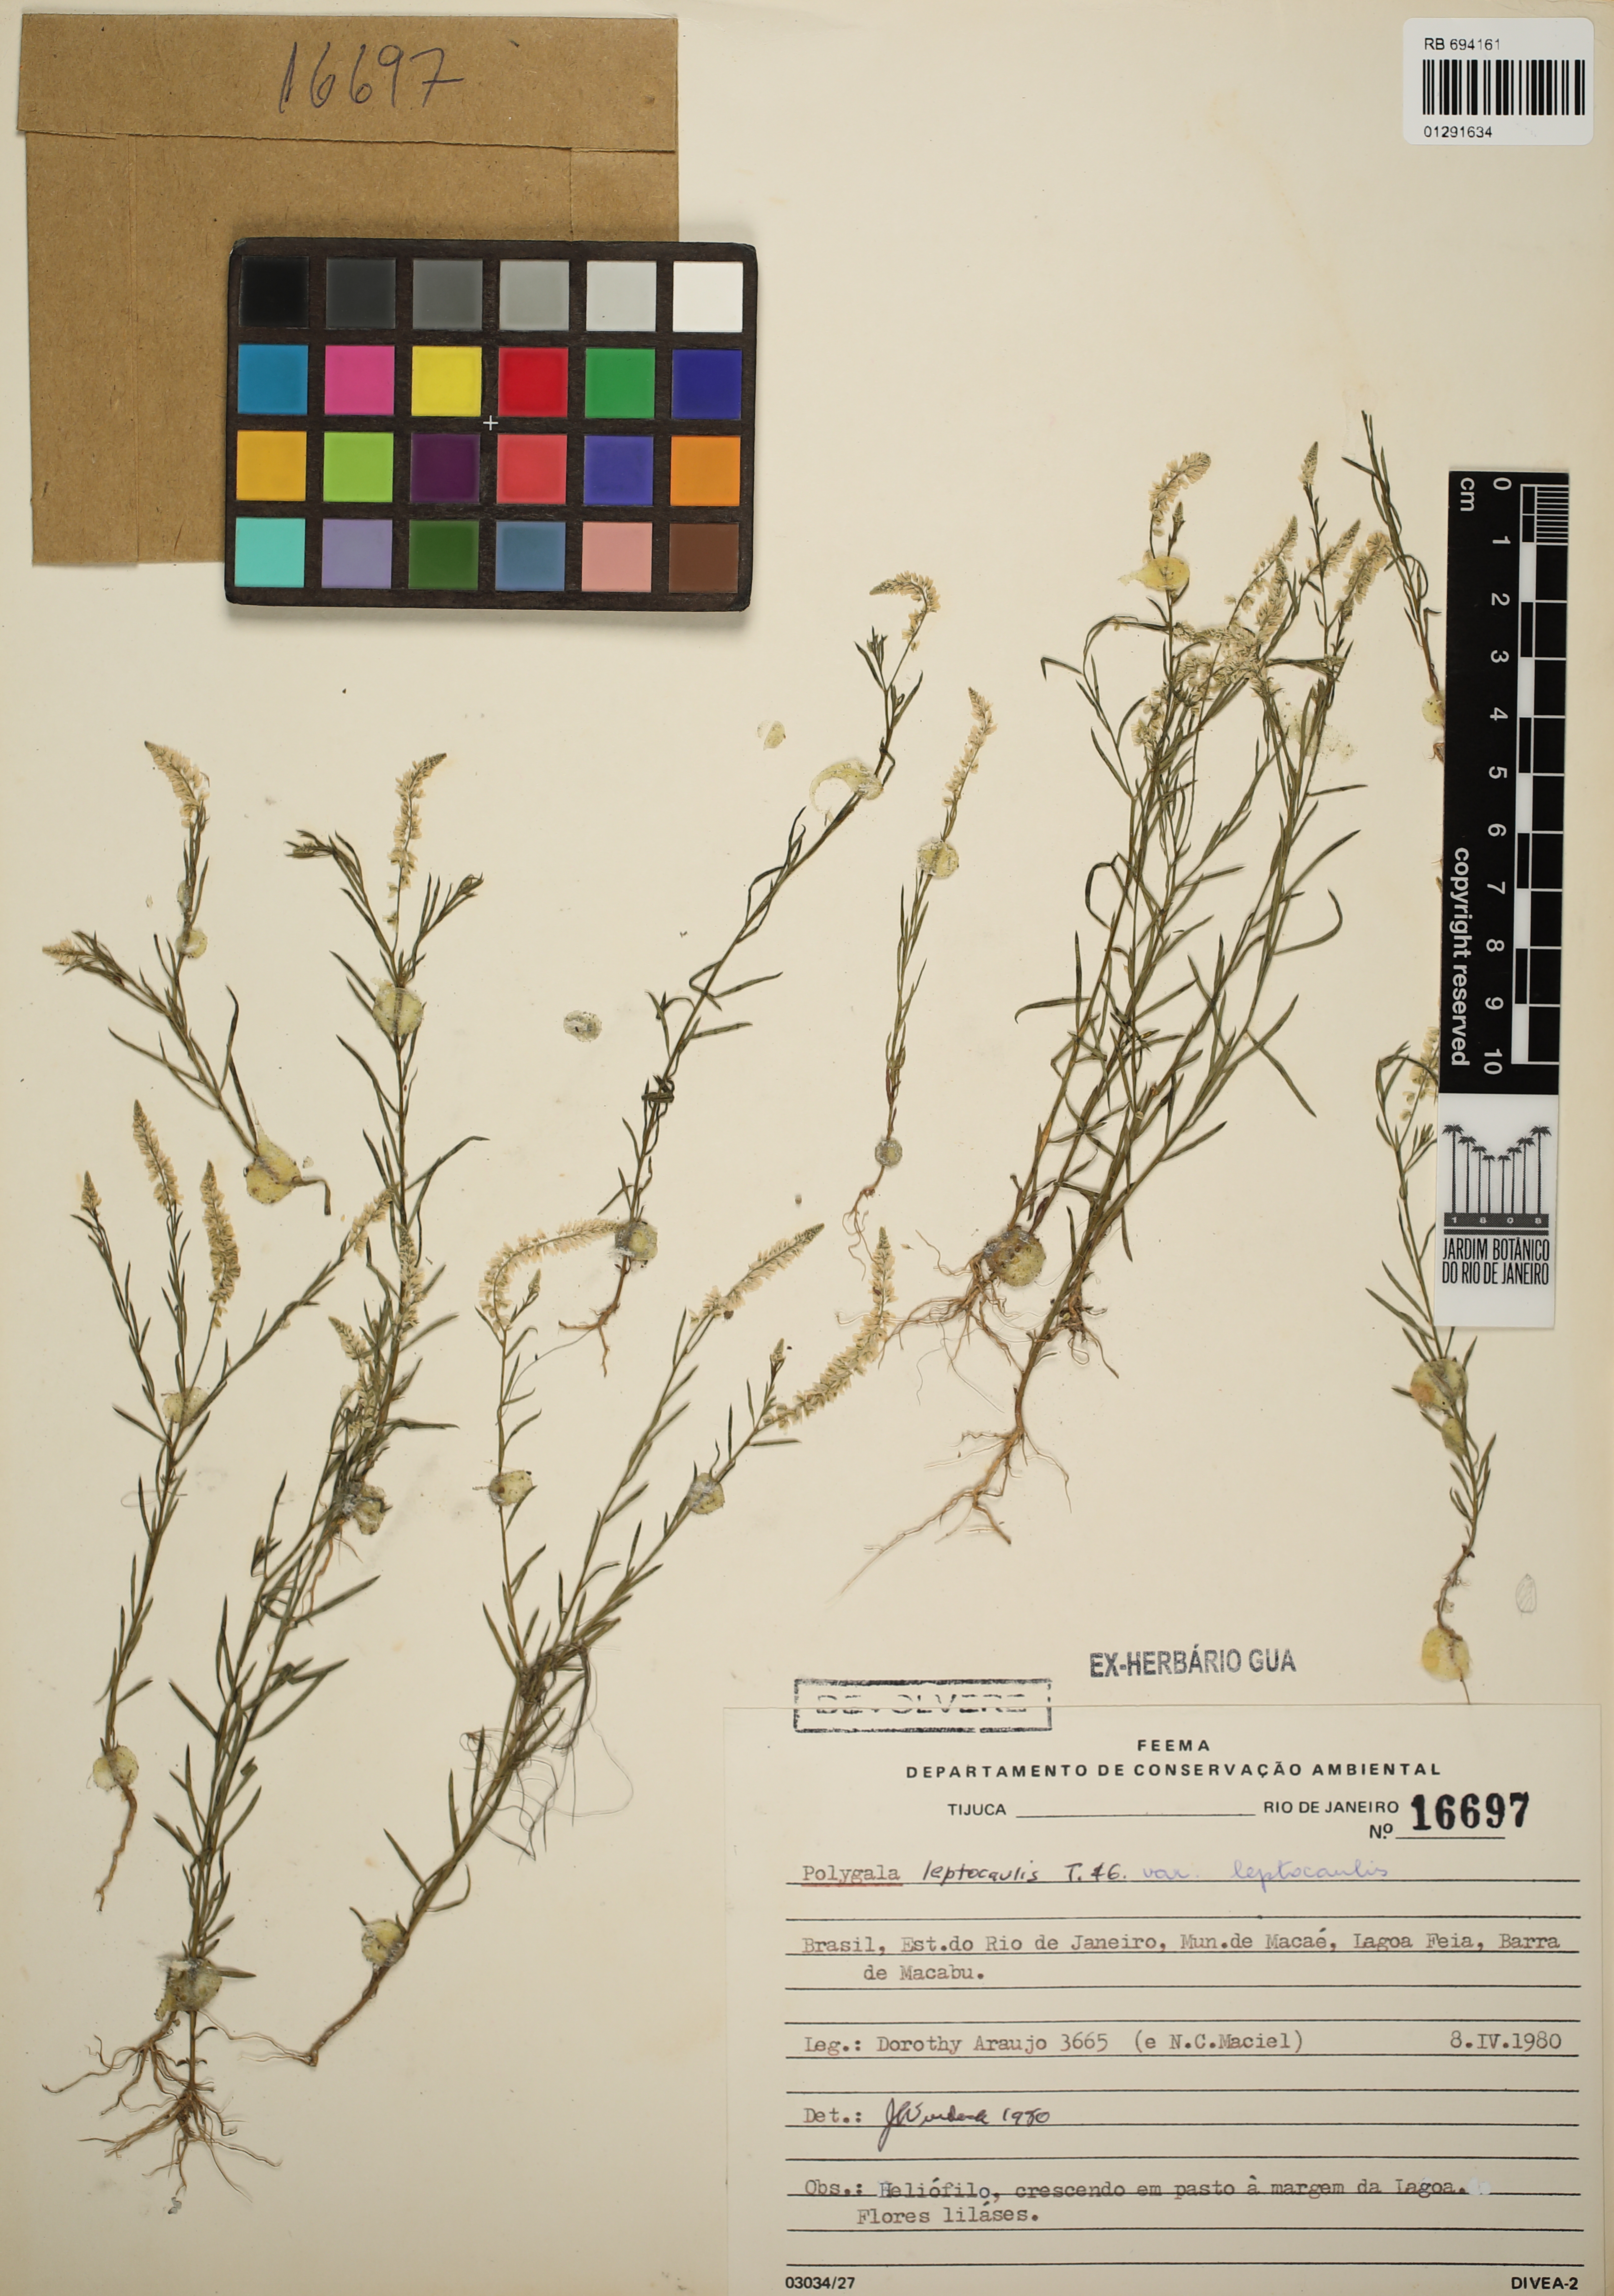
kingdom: Plantae
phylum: Tracheophyta
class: Magnoliopsida
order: Fabales
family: Polygalaceae
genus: Polygala
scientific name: Polygala tenella
